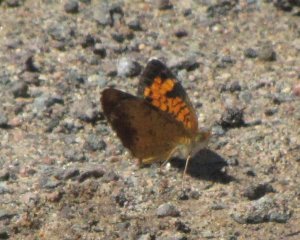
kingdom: Animalia
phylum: Arthropoda
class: Insecta
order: Lepidoptera
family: Nymphalidae
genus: Phyciodes
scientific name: Phyciodes tharos
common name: Northern Crescent
